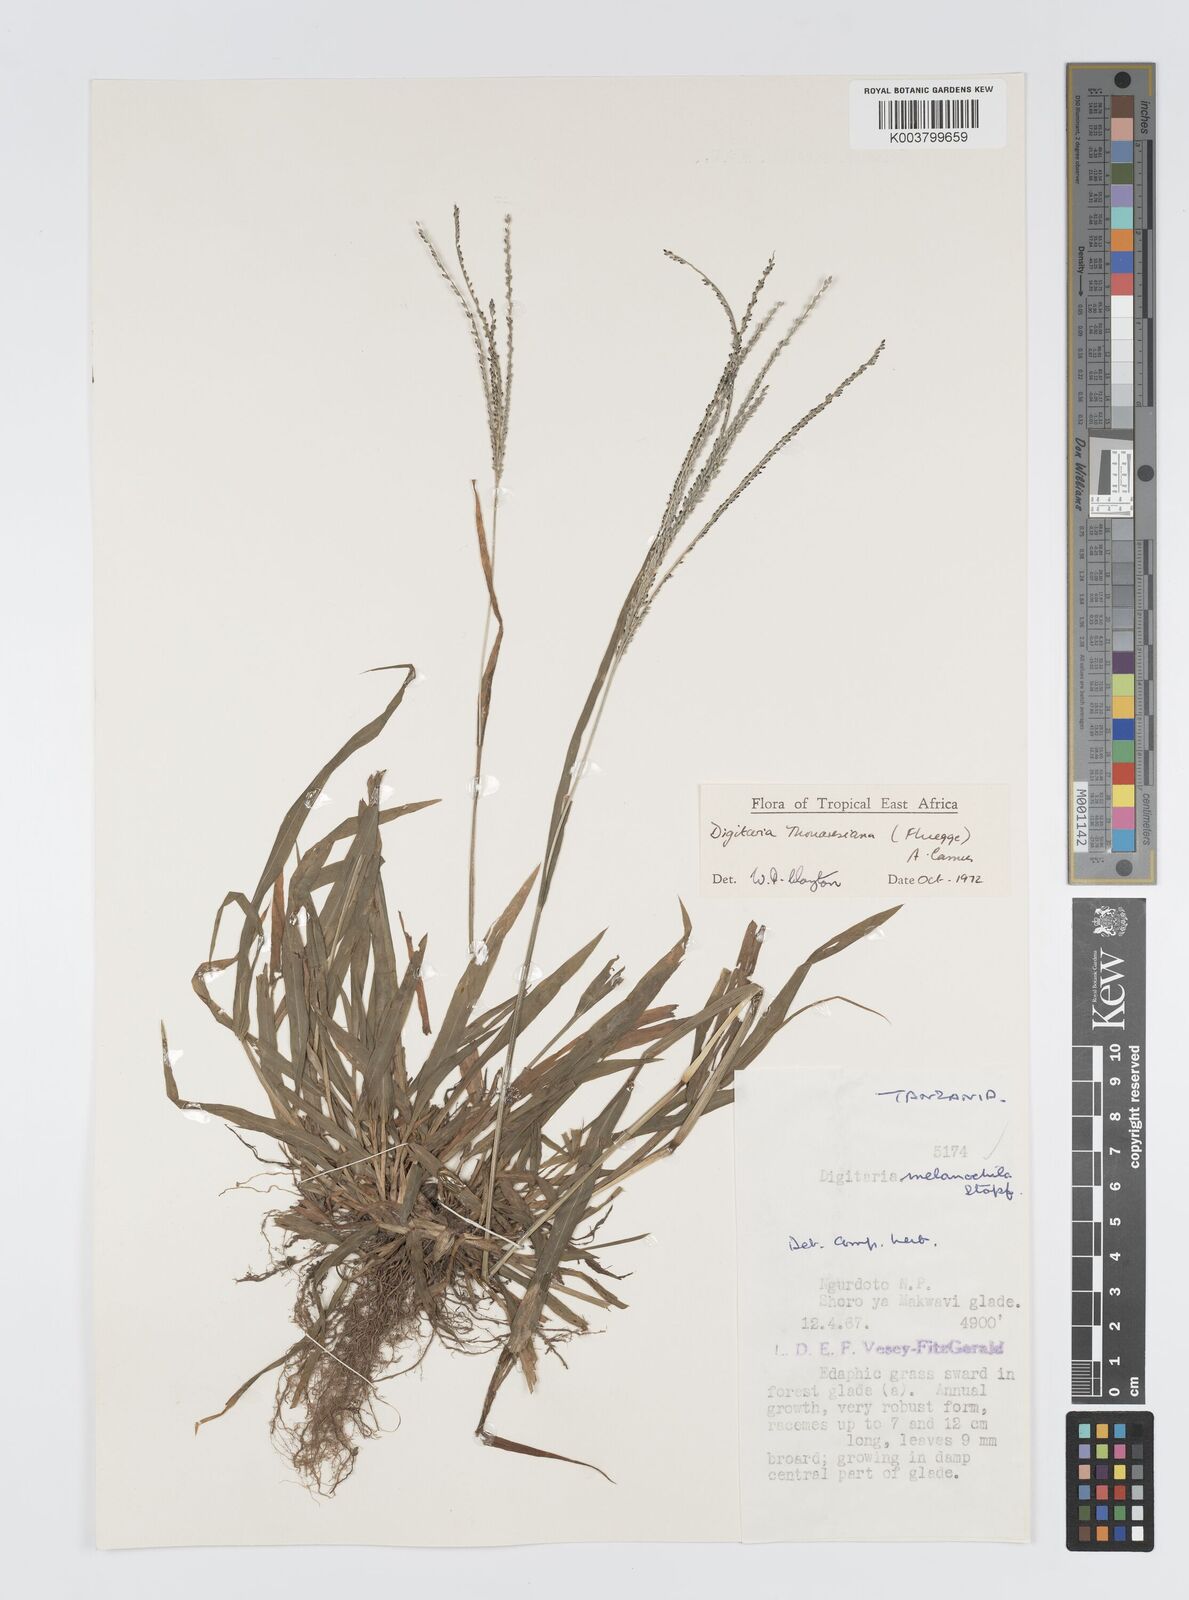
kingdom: Plantae
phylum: Tracheophyta
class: Liliopsida
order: Poales
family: Poaceae
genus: Digitaria
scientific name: Digitaria thouarsiana
